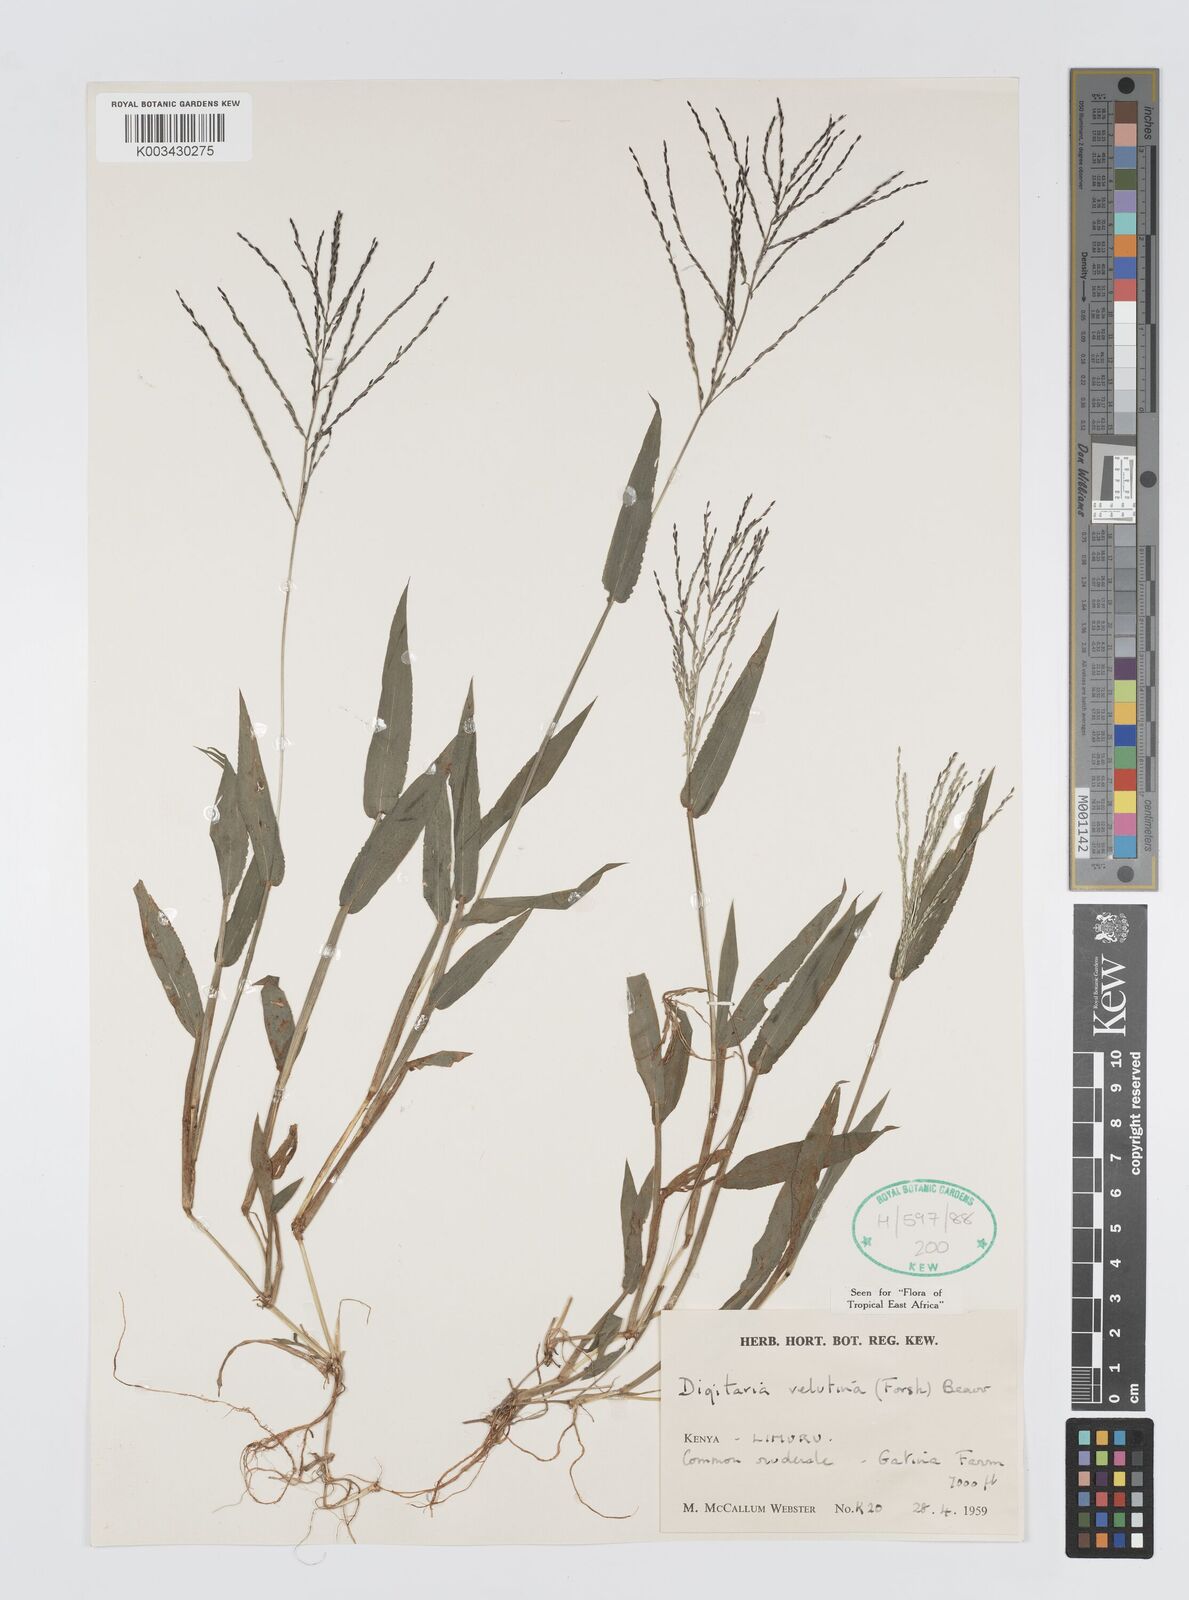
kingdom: Plantae
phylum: Tracheophyta
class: Liliopsida
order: Poales
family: Poaceae
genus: Digitaria
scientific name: Digitaria velutina
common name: Long-plume finger grass
